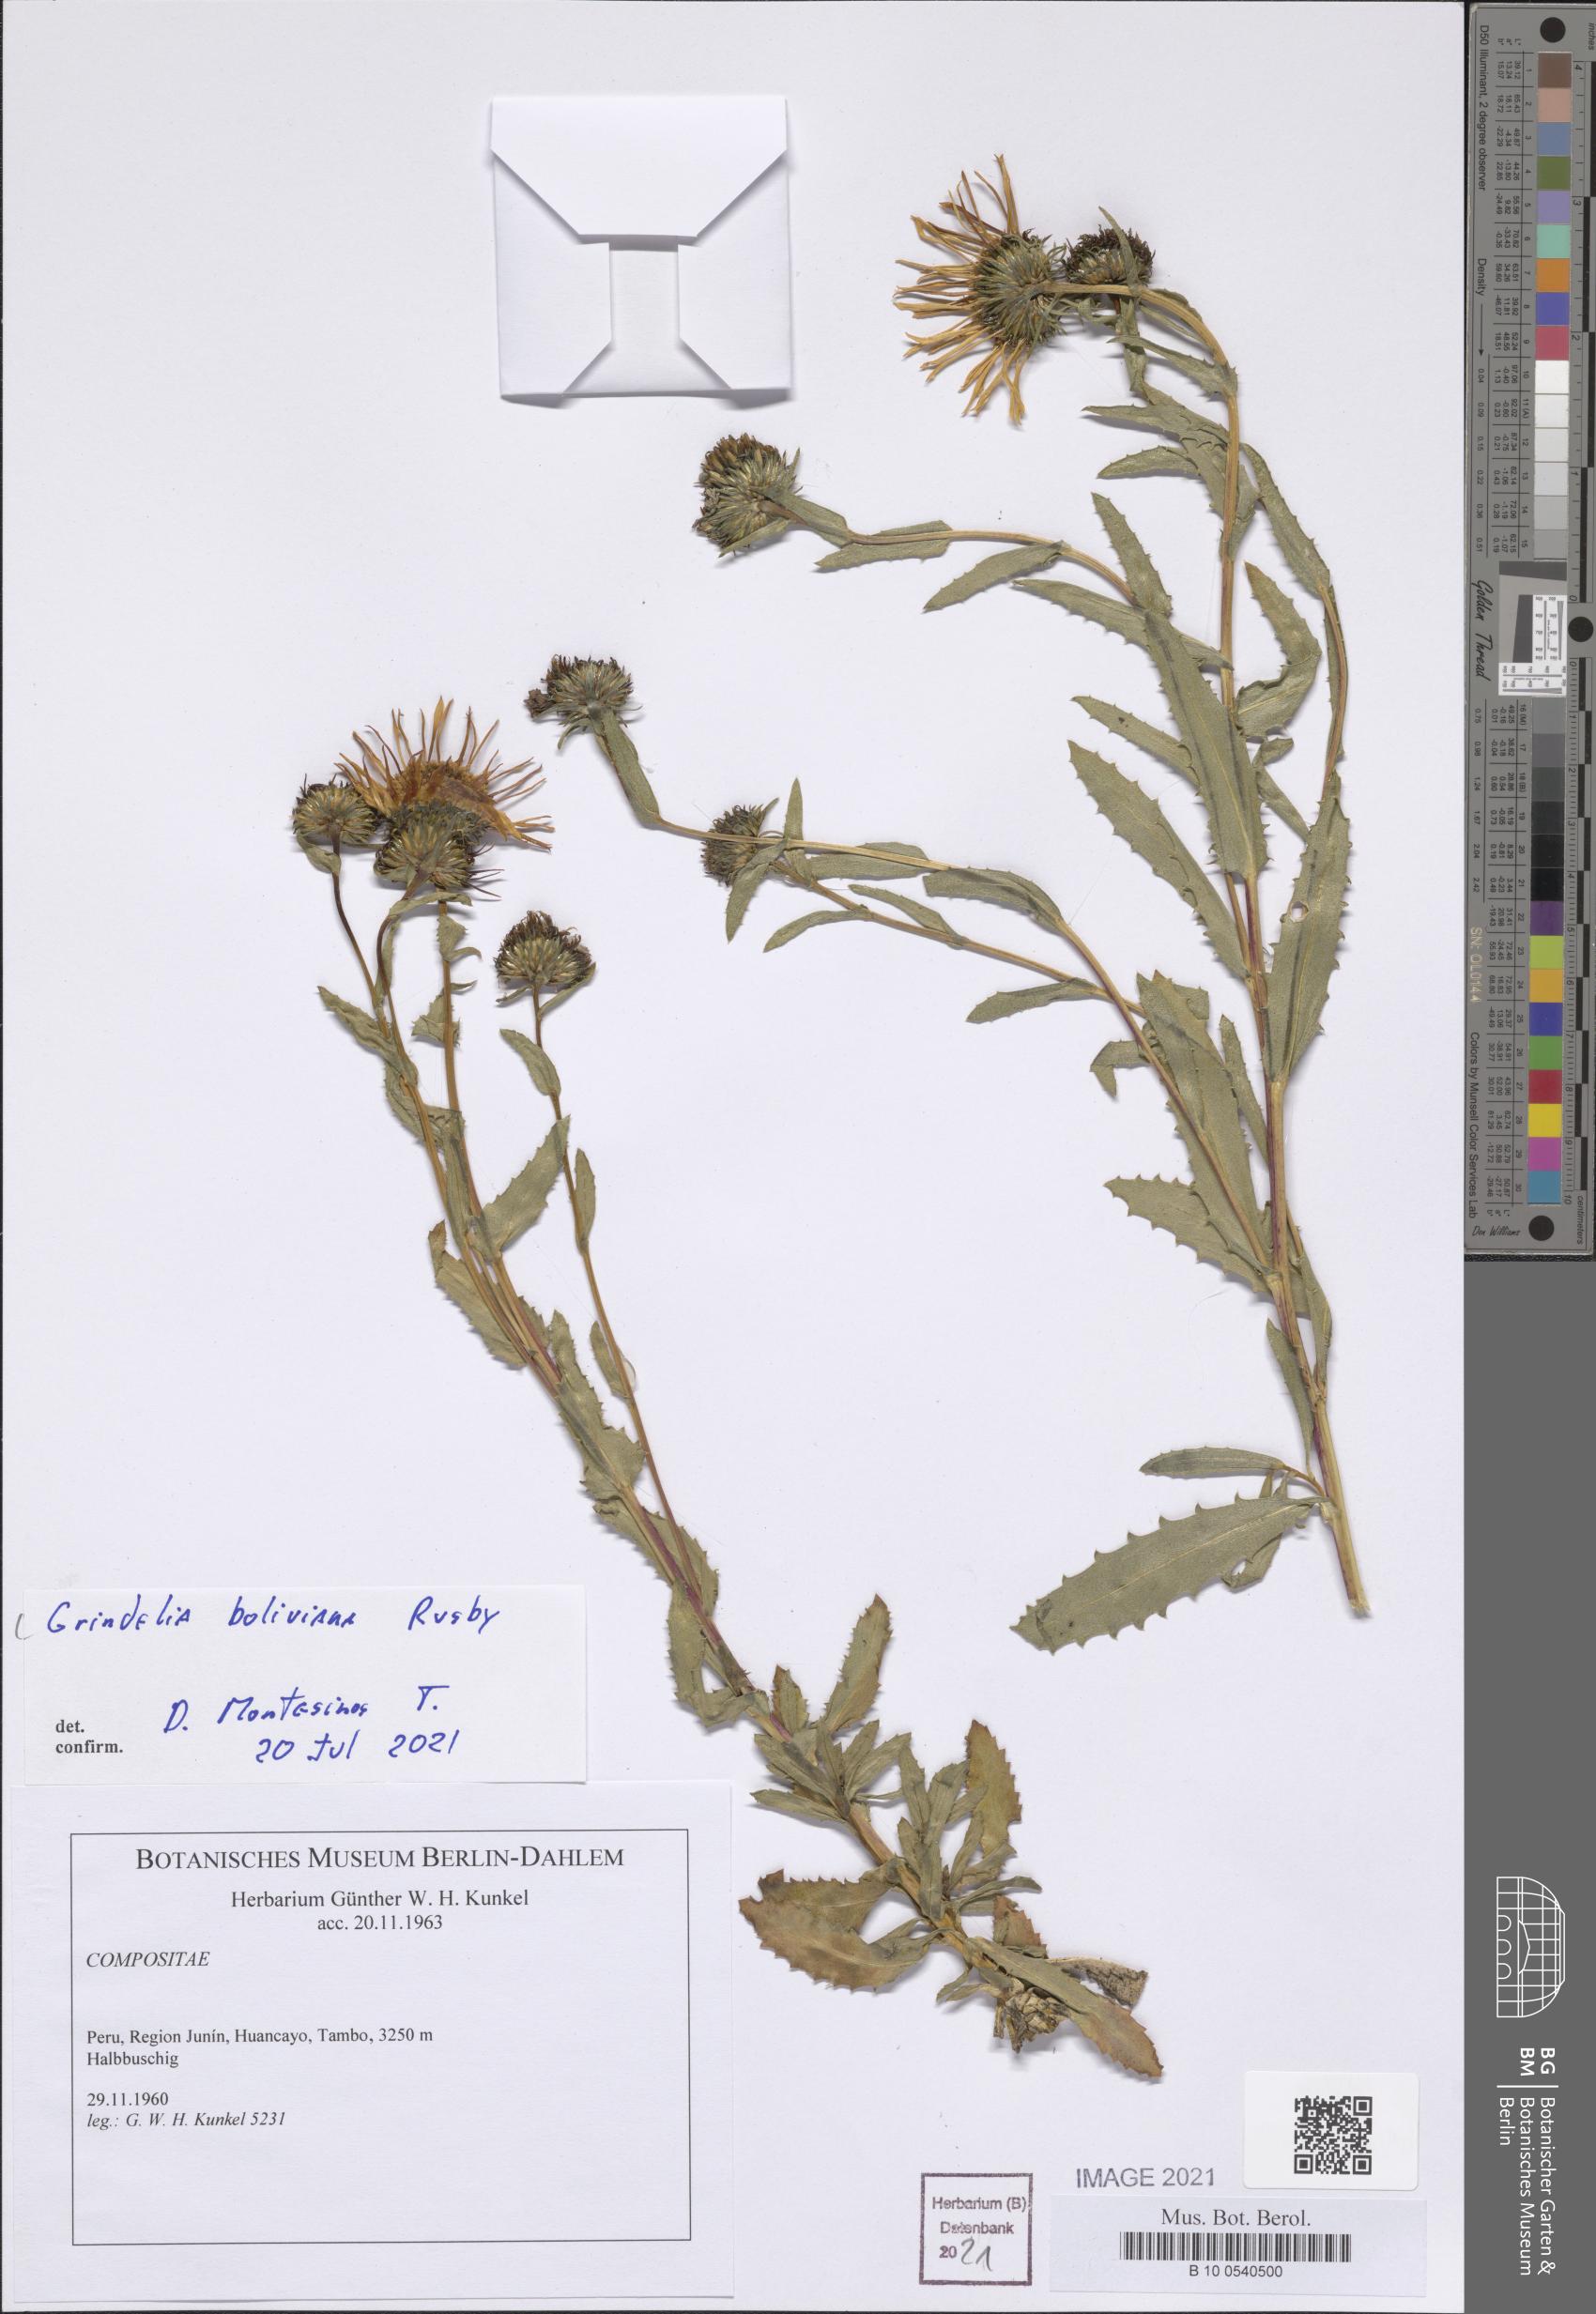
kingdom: Plantae
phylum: Tracheophyta
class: Magnoliopsida
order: Asterales
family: Asteraceae
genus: Grindelia
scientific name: Grindelia boliviana
